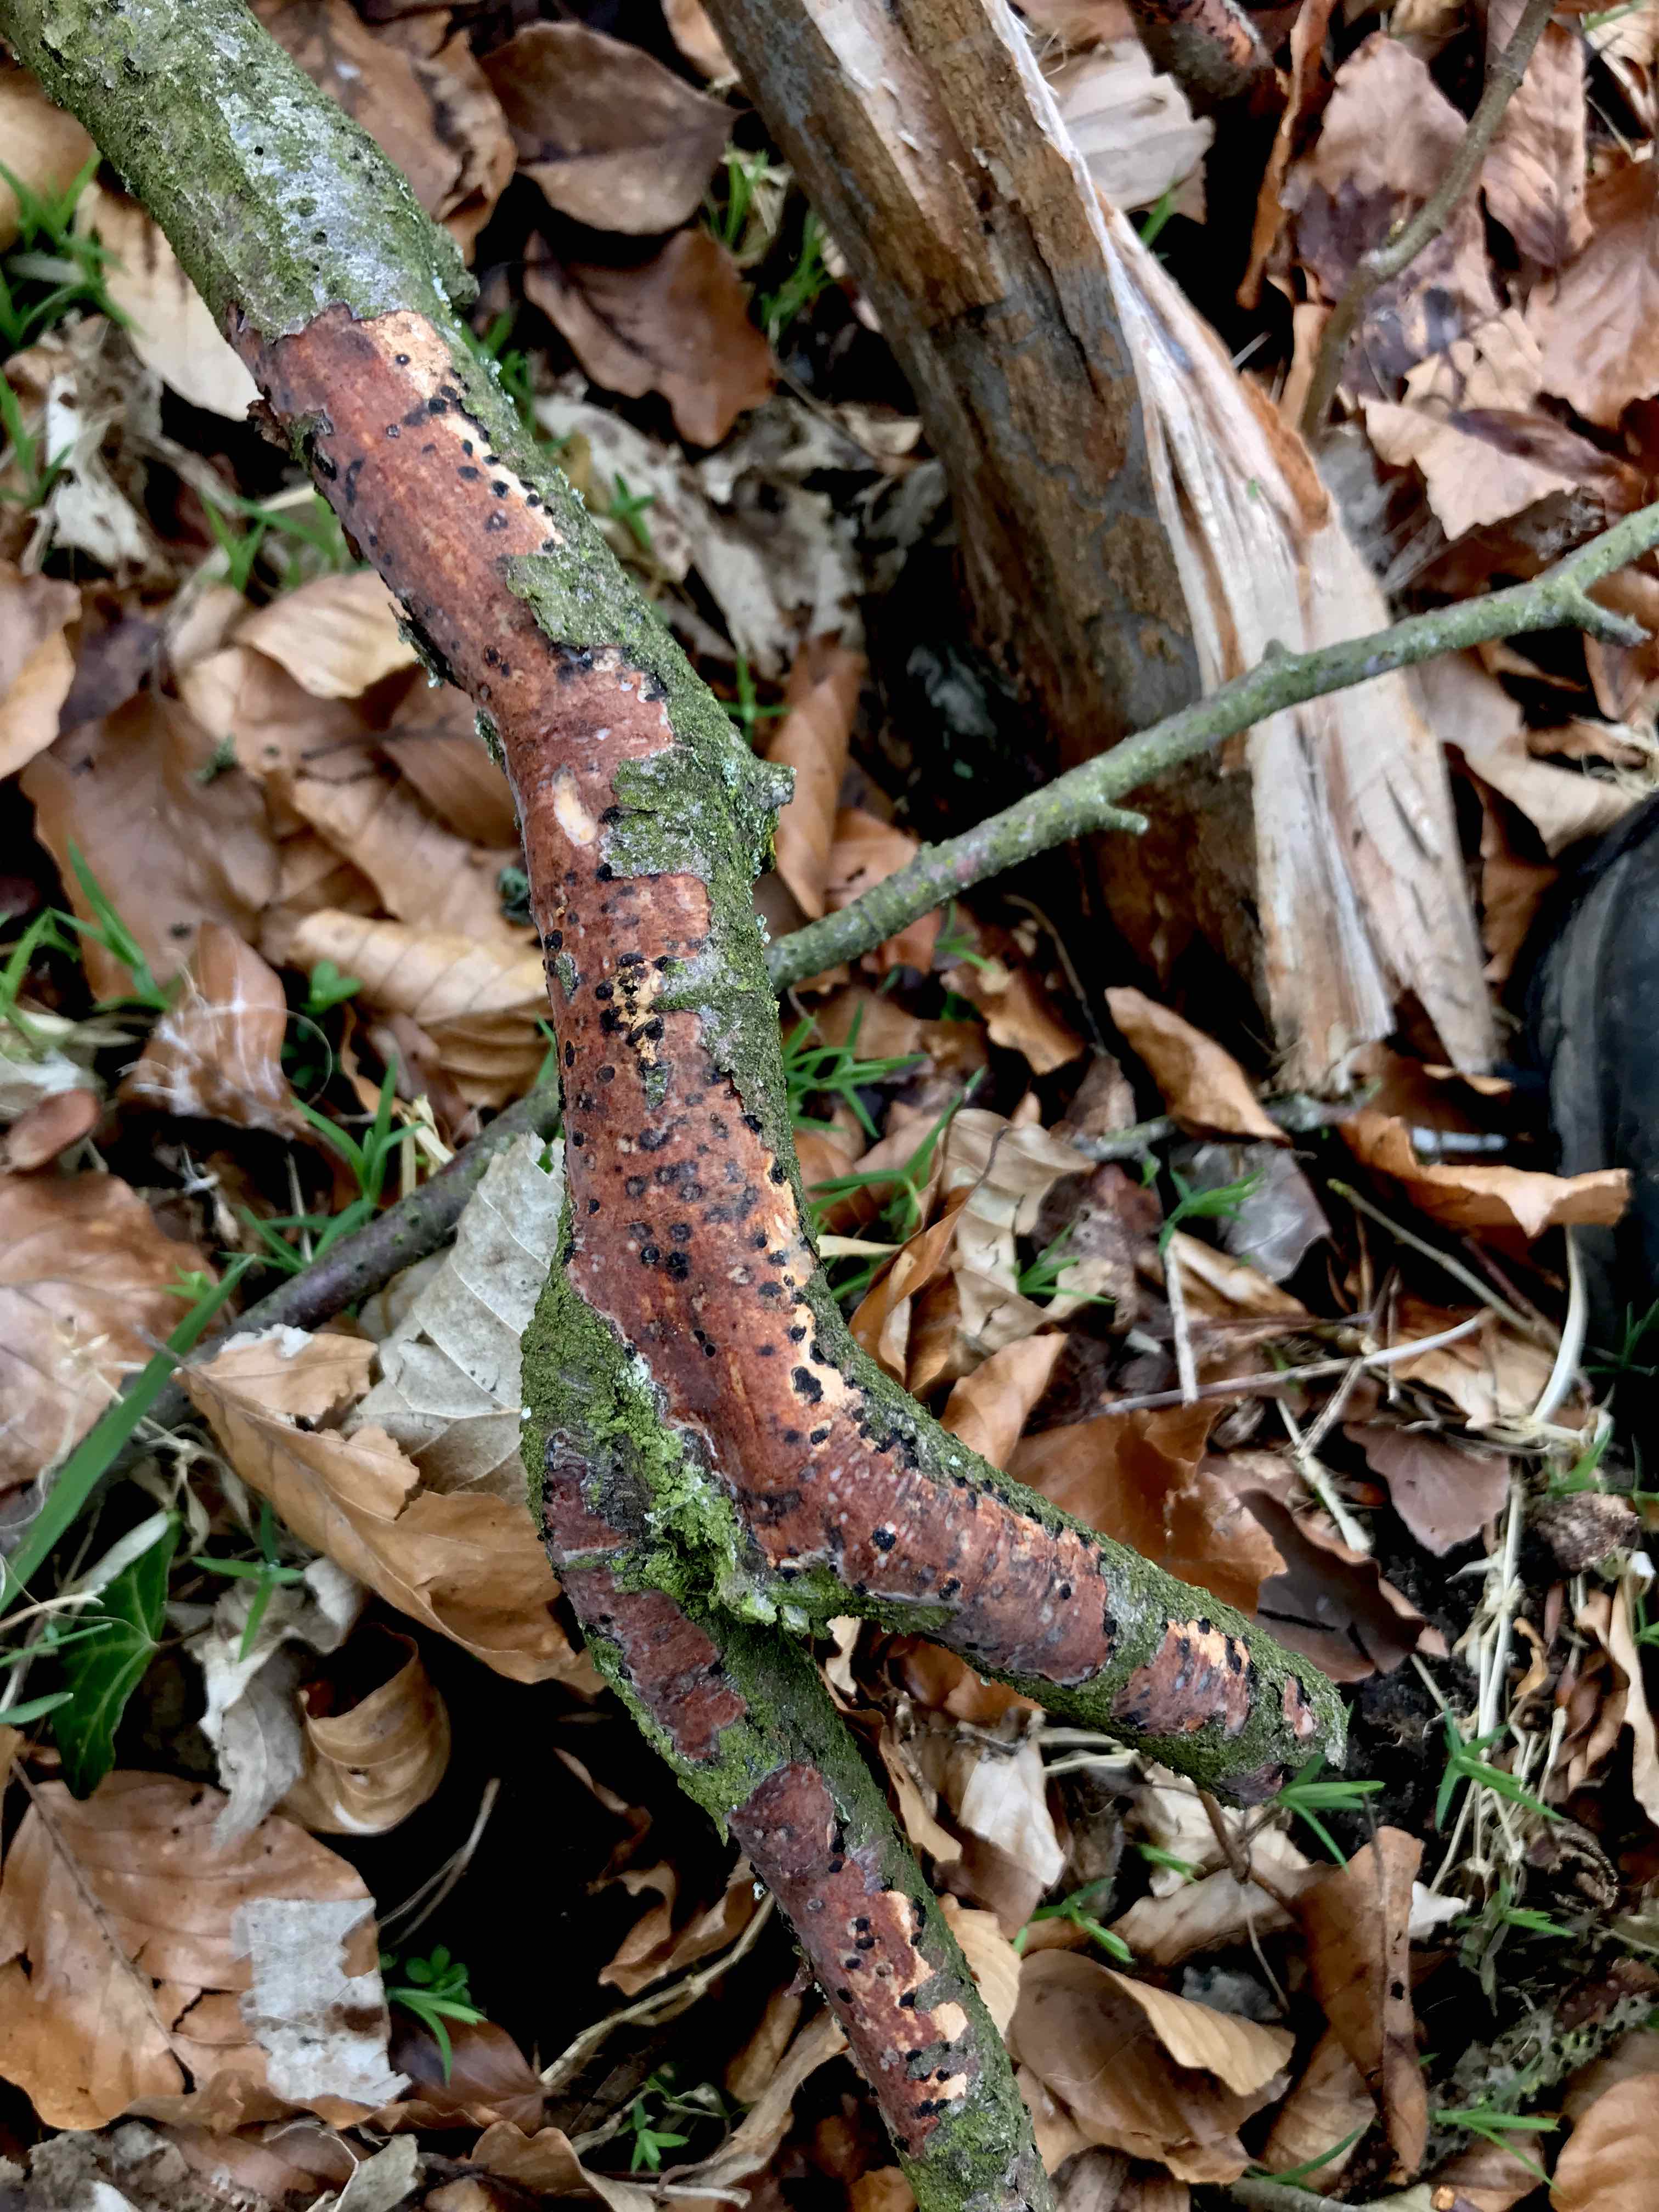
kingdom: Fungi
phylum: Basidiomycota
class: Agaricomycetes
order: Corticiales
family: Vuilleminiaceae
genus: Vuilleminia
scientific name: Vuilleminia comedens
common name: almindelig barksprænger
